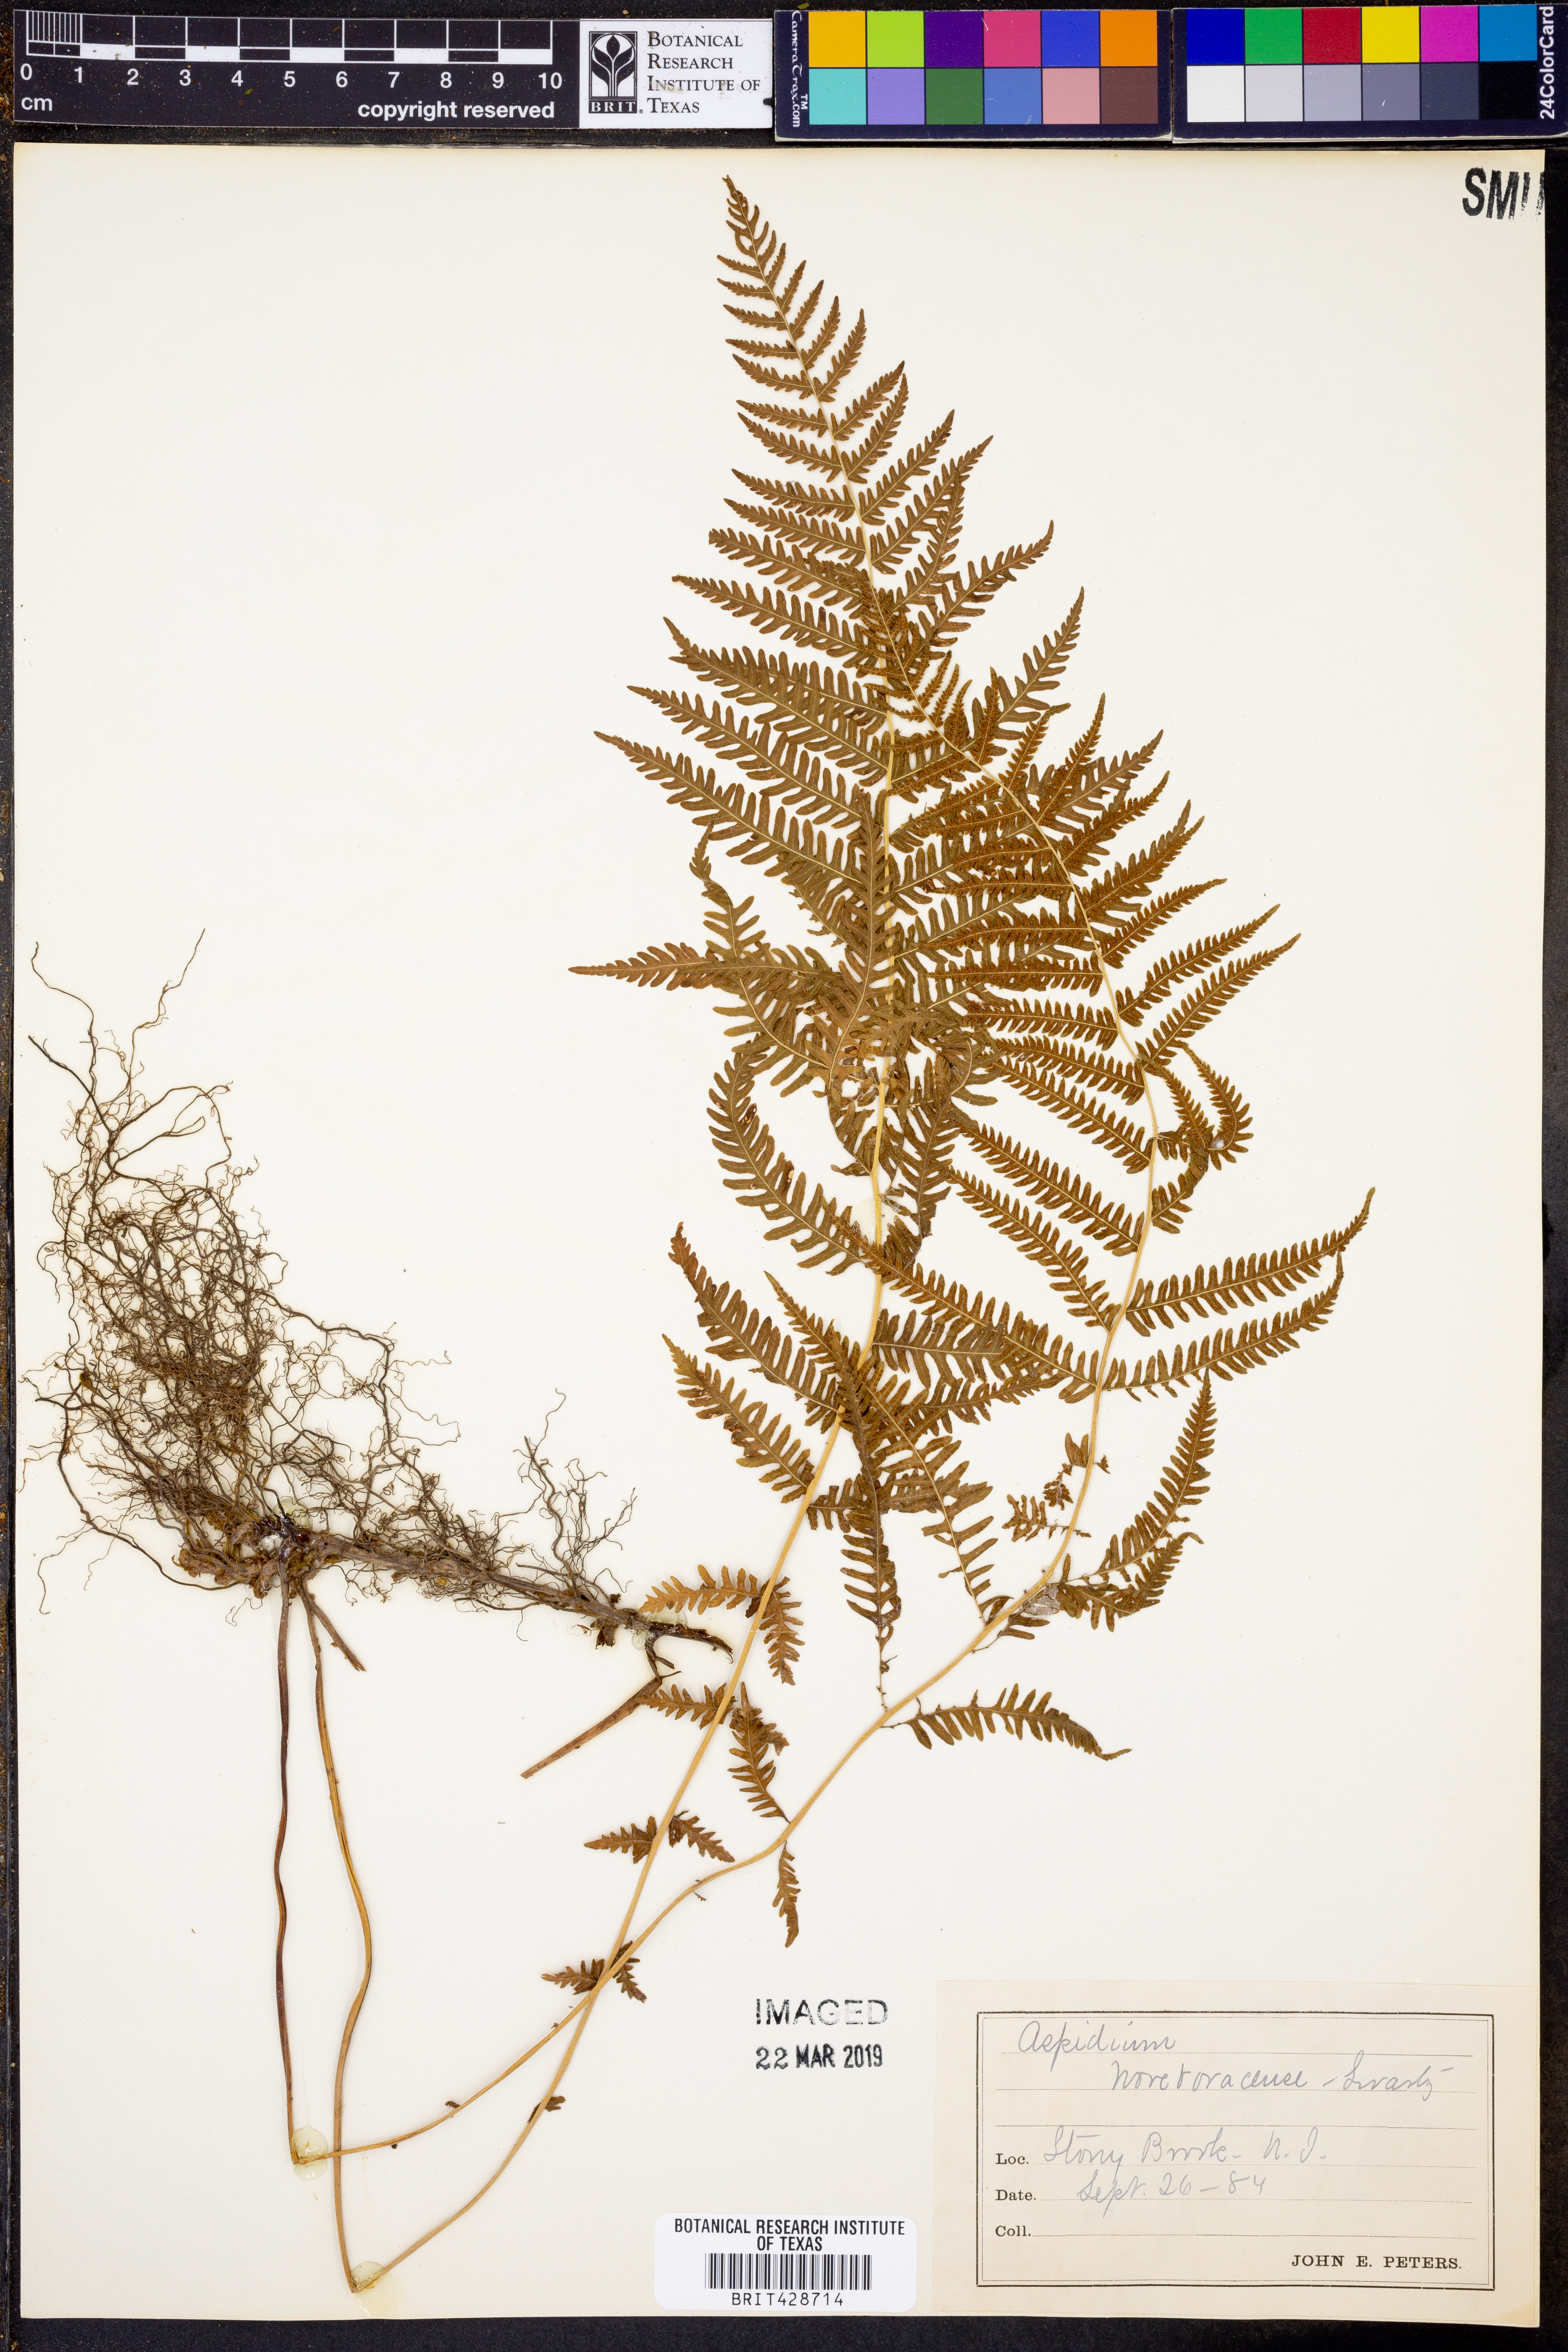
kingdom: Plantae
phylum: Tracheophyta
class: Polypodiopsida
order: Polypodiales
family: Thelypteridaceae
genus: Amauropelta
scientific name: Amauropelta noveboracensis
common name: New york fern
